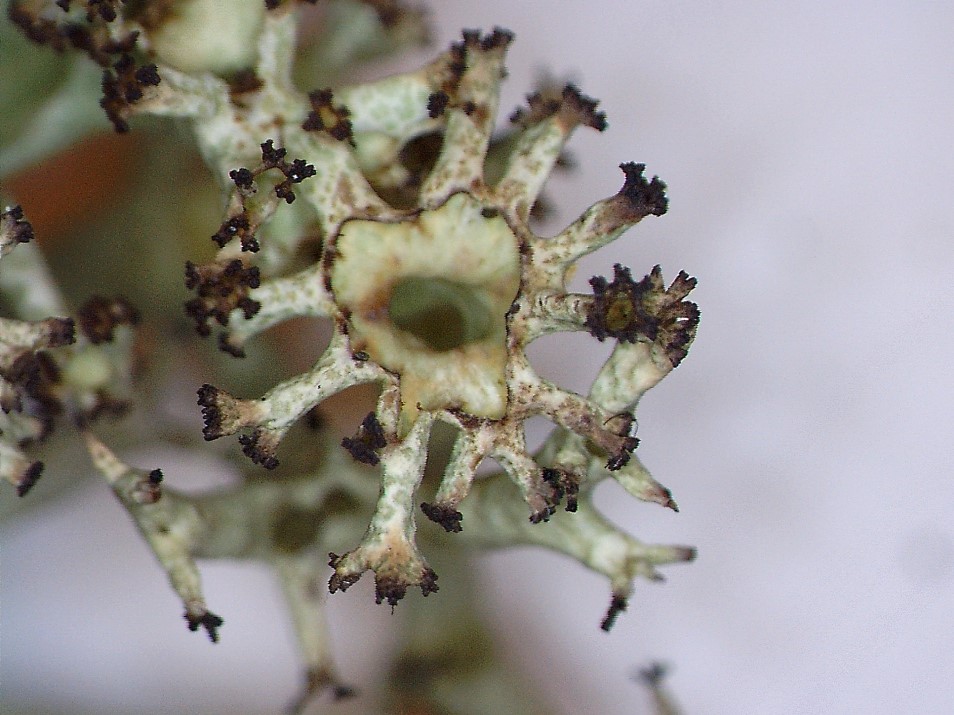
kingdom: Fungi
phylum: Ascomycota
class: Lecanoromycetes
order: Lecanorales
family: Cladoniaceae
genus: Cladonia
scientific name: Cladonia crispata
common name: takket bægerlav
